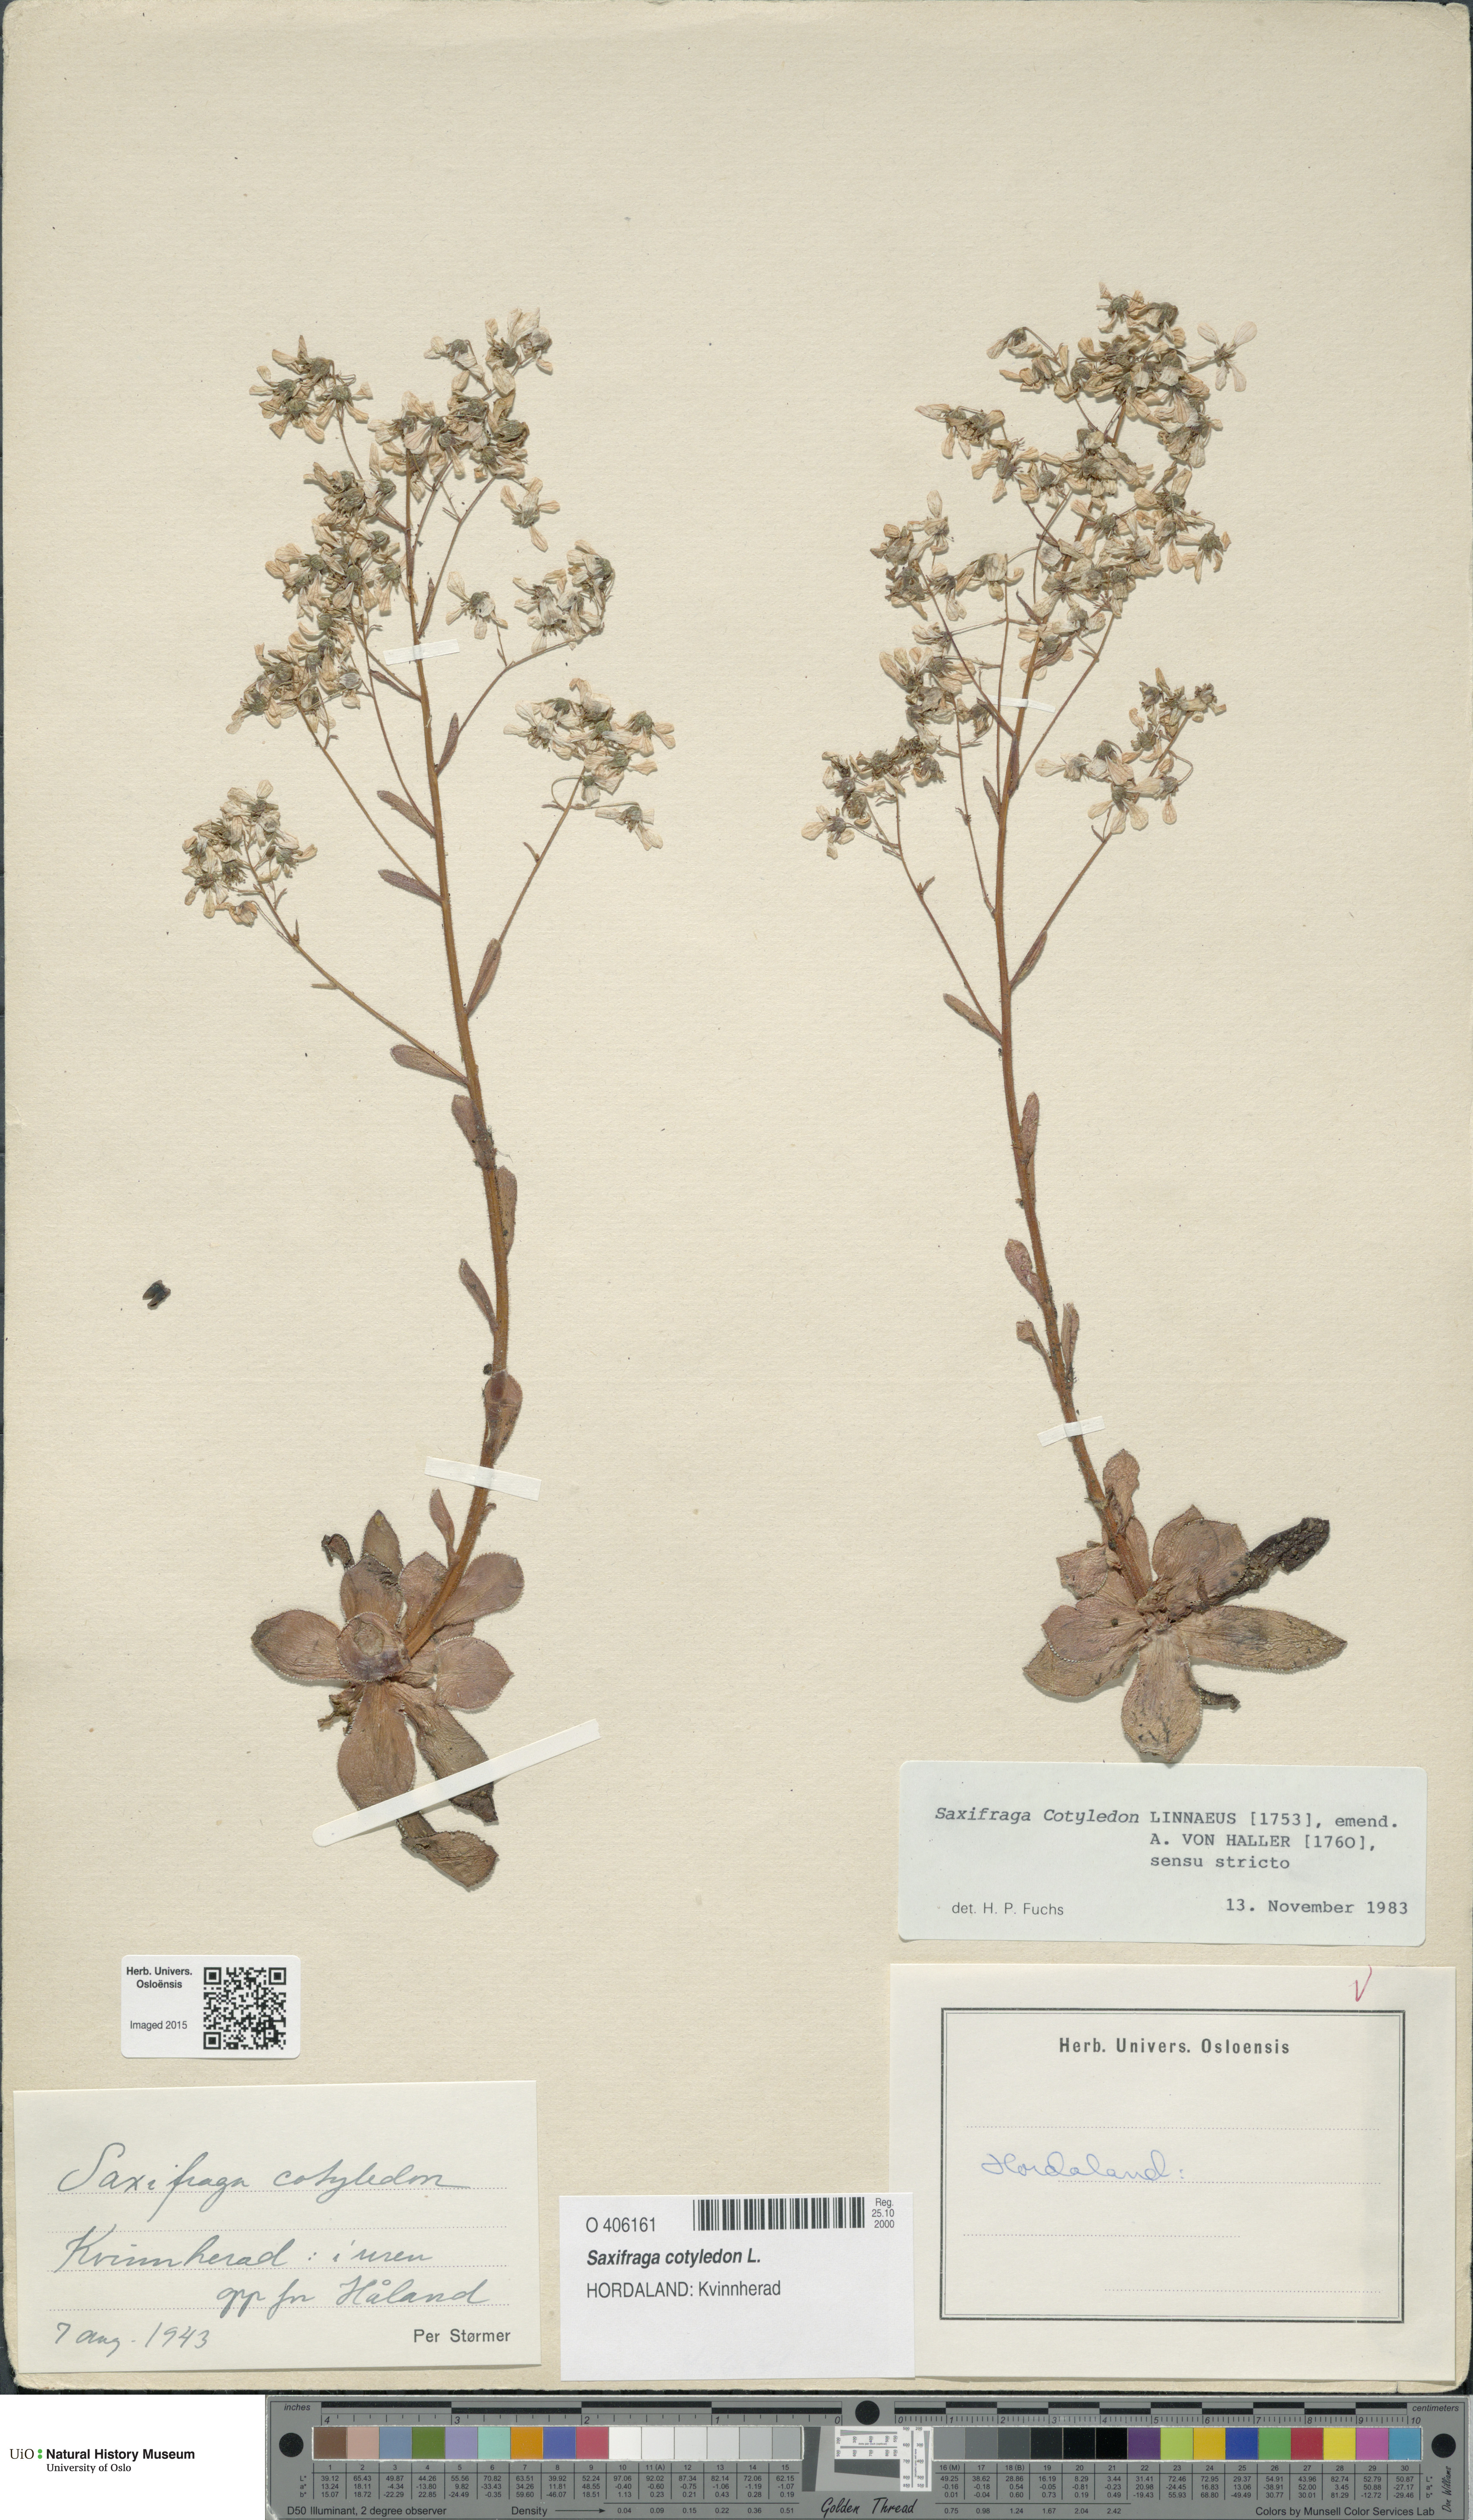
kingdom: Plantae
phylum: Tracheophyta
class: Magnoliopsida
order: Saxifragales
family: Saxifragaceae
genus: Saxifraga
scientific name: Saxifraga cotyledon
